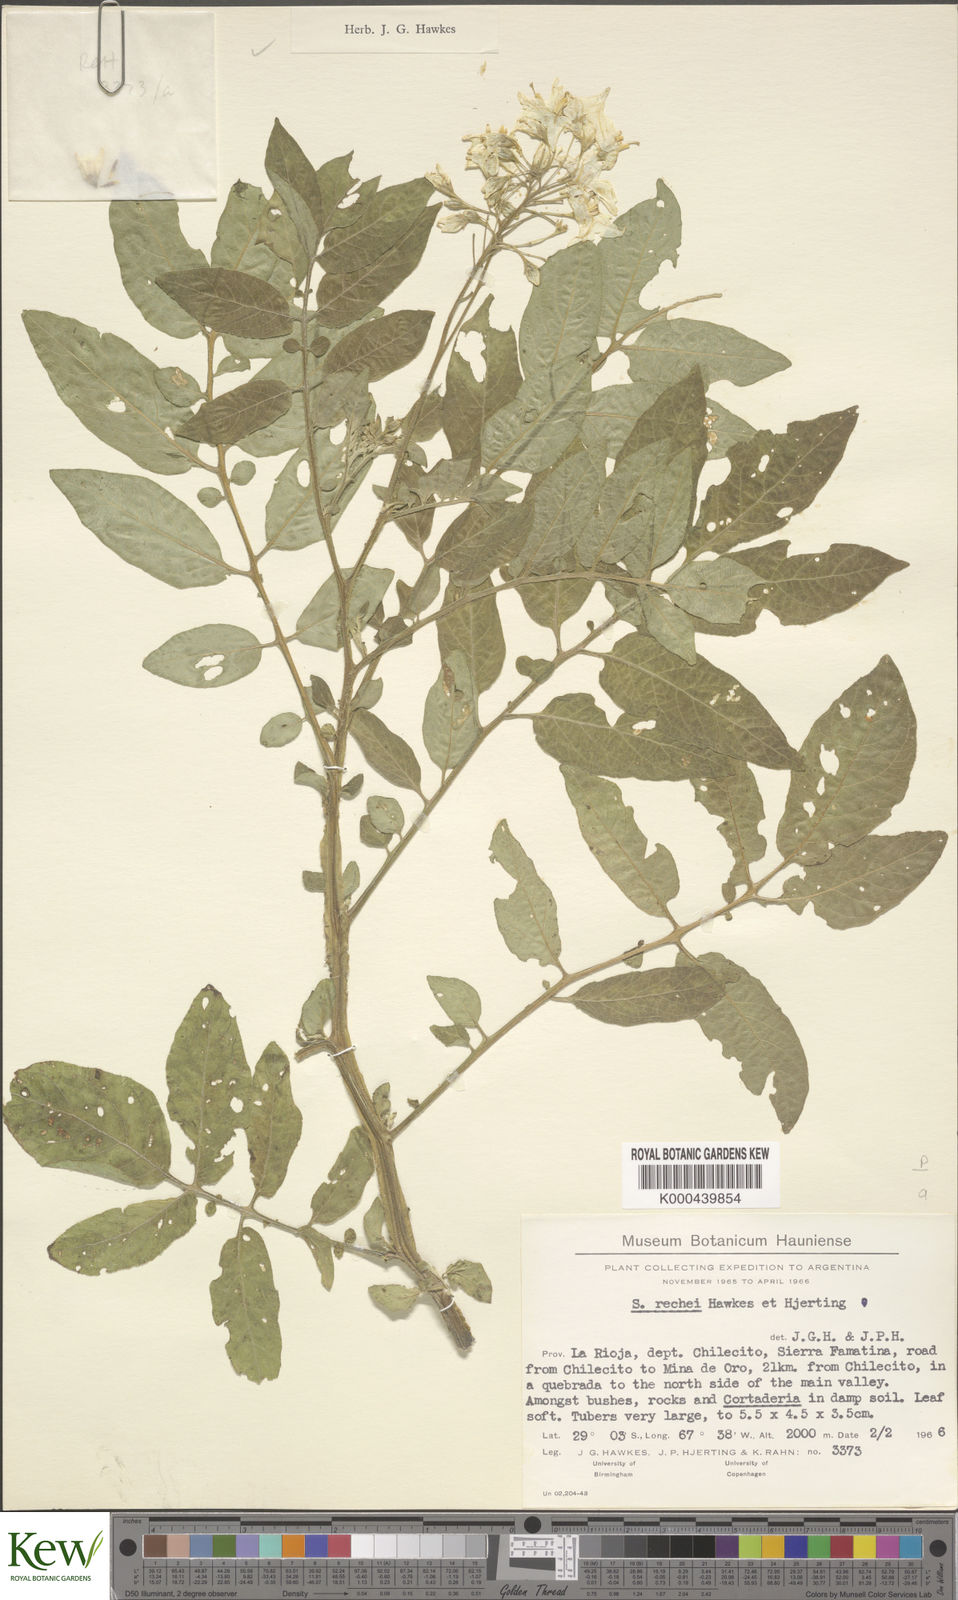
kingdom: Plantae
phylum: Tracheophyta
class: Magnoliopsida
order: Solanales
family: Solanaceae
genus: Solanum
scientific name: Solanum rechei
